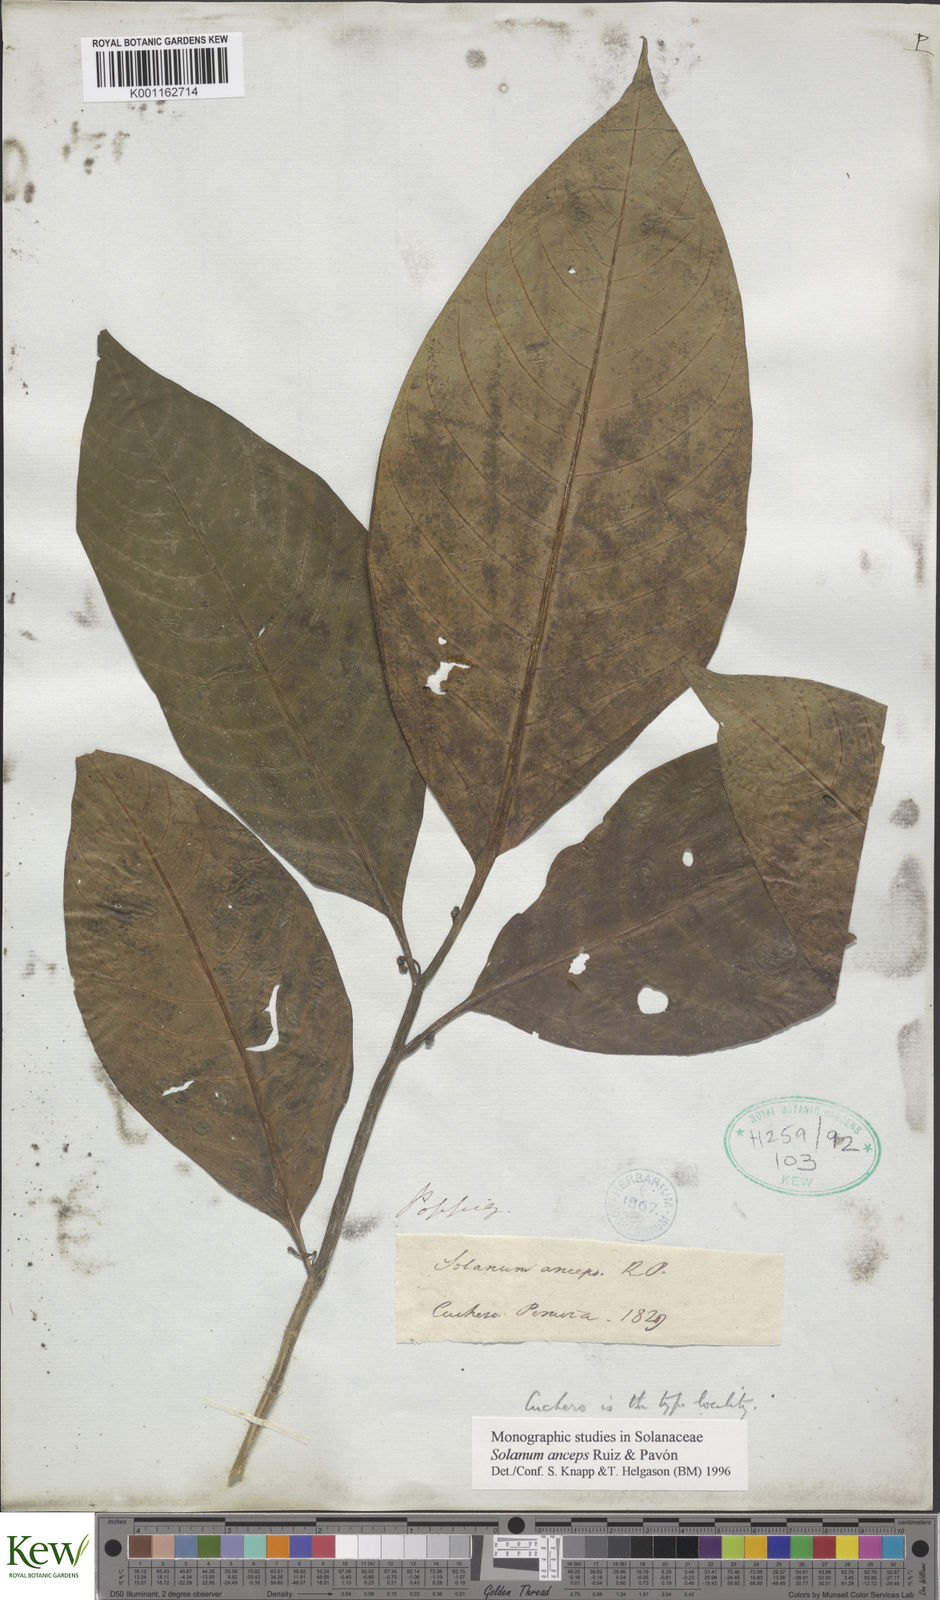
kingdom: Plantae
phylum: Tracheophyta
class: Magnoliopsida
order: Solanales
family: Solanaceae
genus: Solanum
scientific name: Solanum anceps
